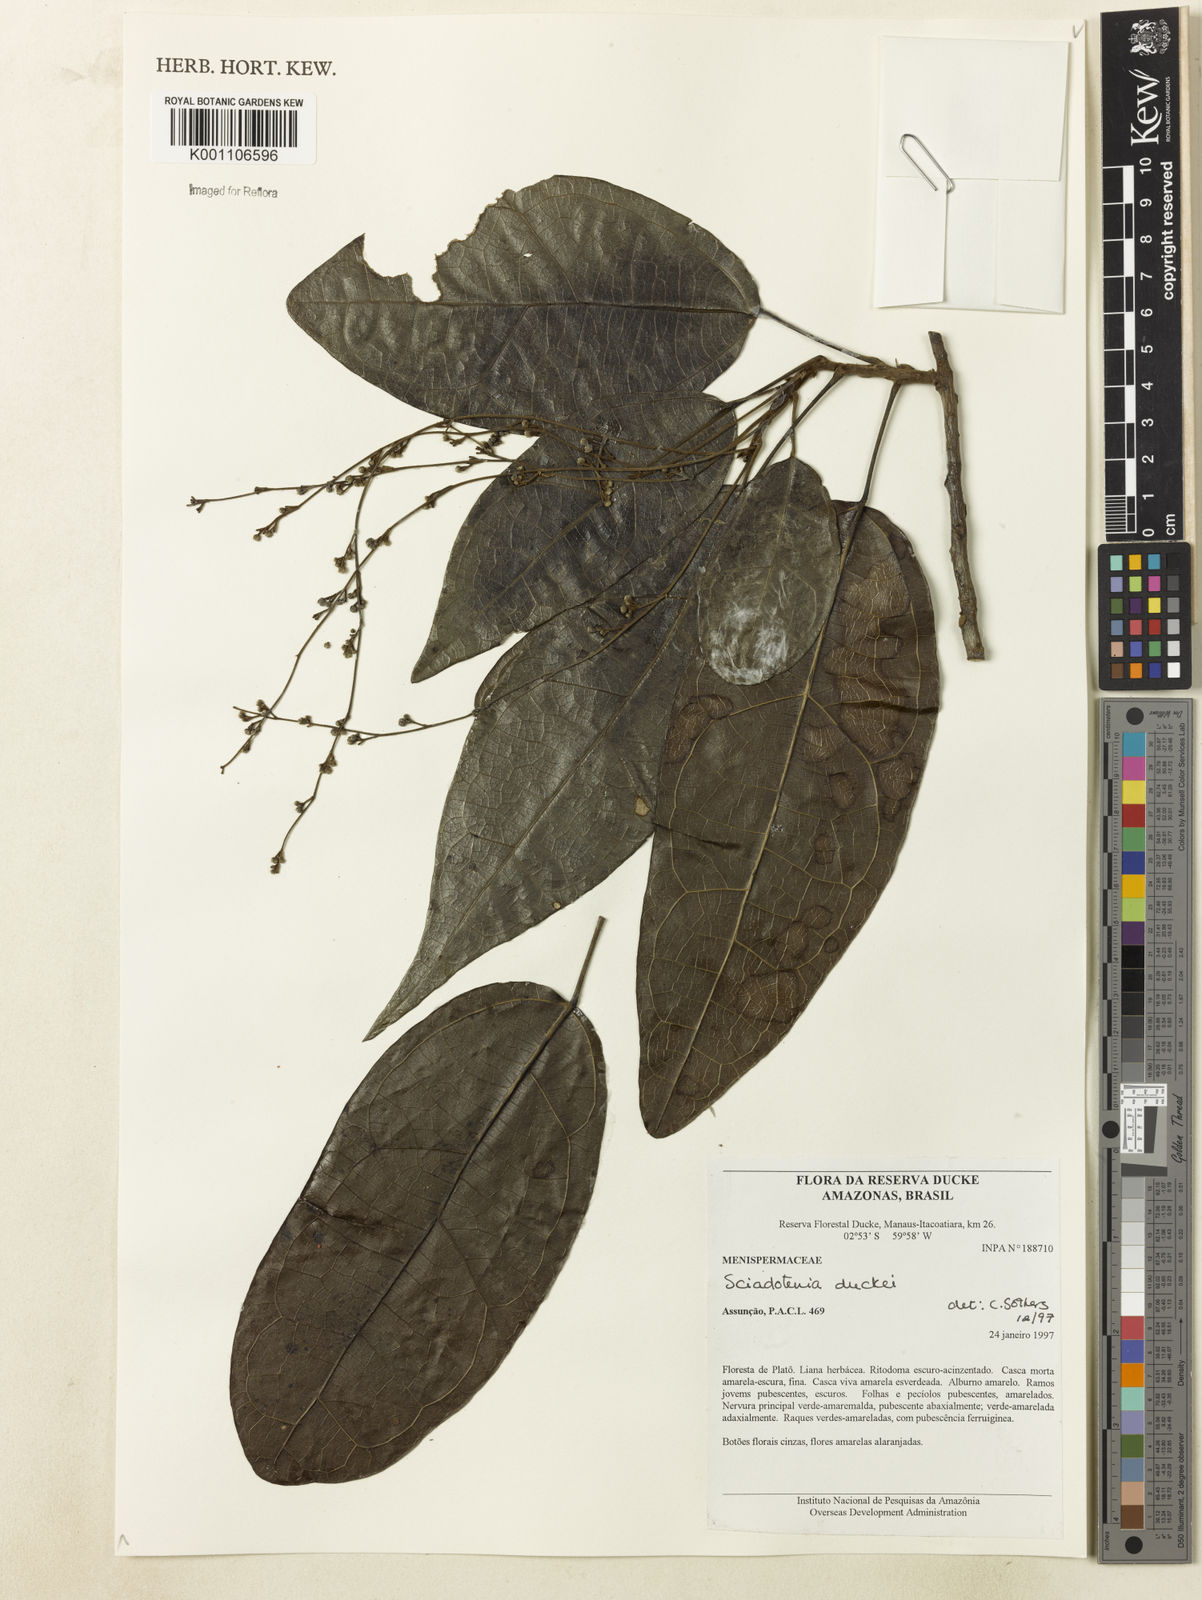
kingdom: Plantae
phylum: Tracheophyta
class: Magnoliopsida
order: Ranunculales
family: Menispermaceae
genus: Sciadotenia
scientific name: Sciadotenia duckei
